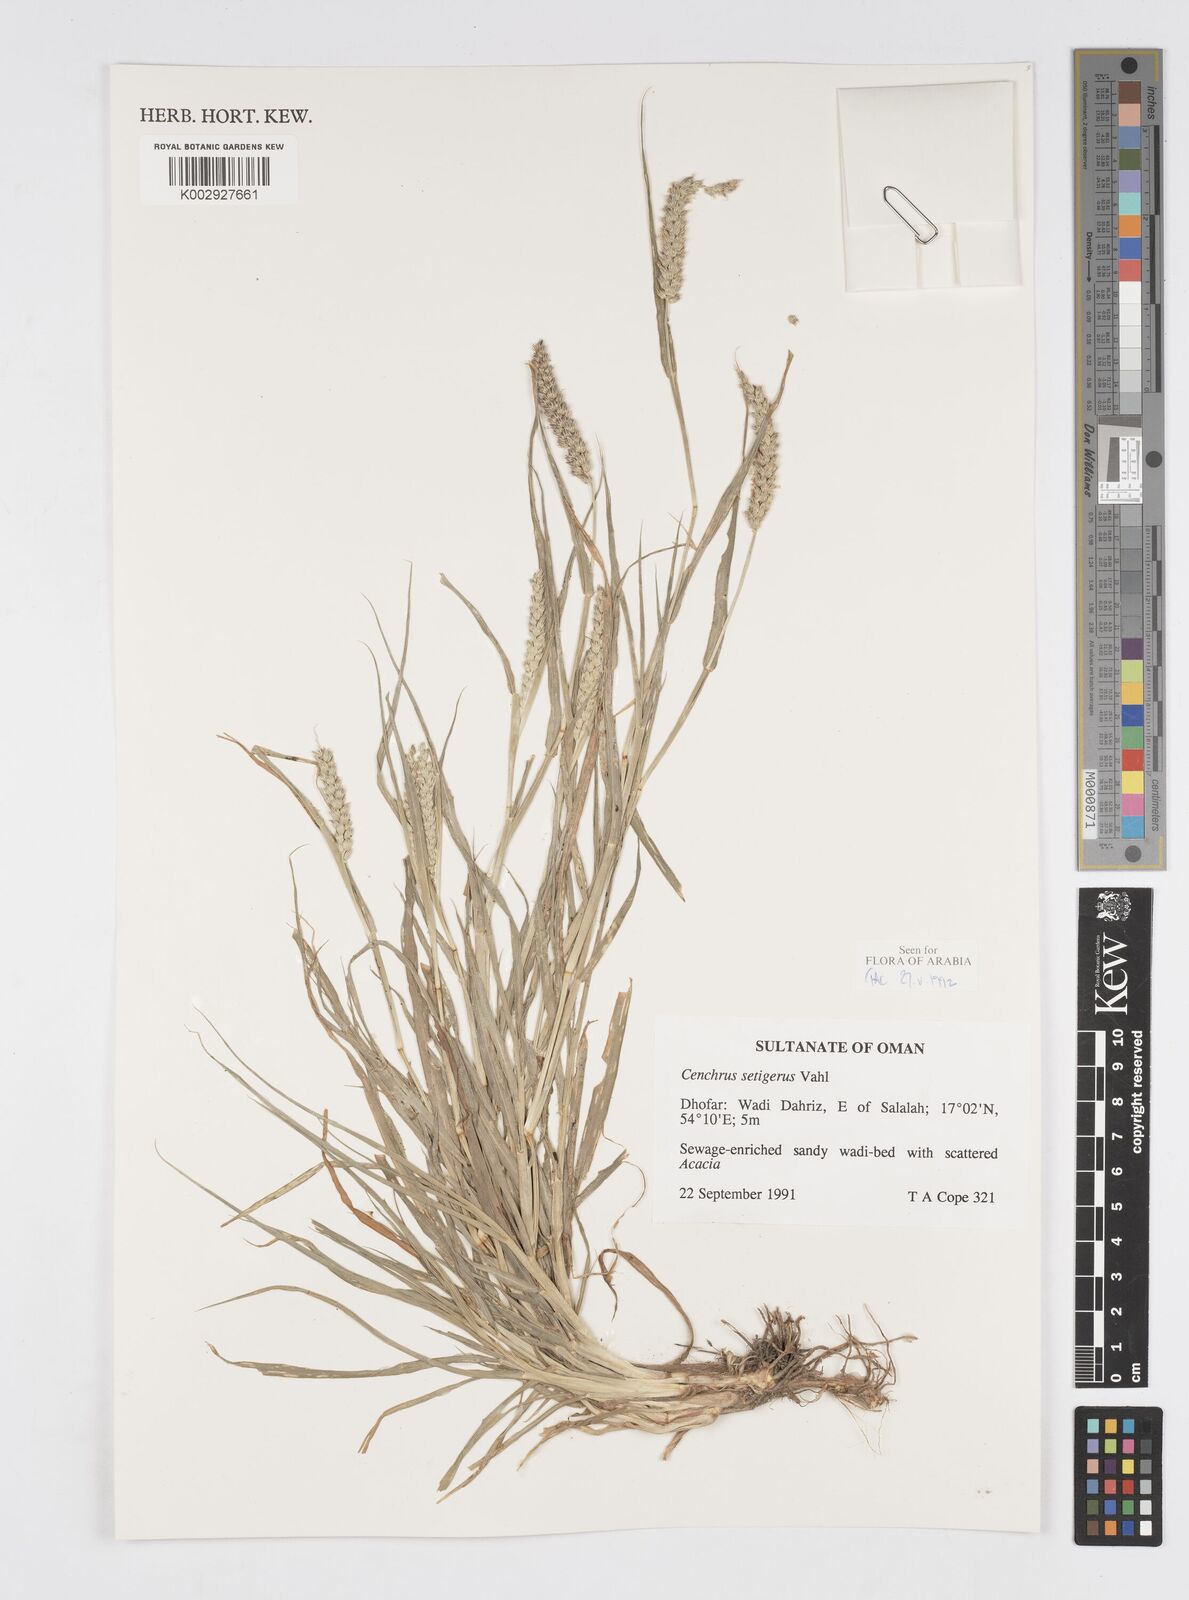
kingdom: Plantae
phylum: Tracheophyta
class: Liliopsida
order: Poales
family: Poaceae
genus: Cenchrus
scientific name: Cenchrus setigerus
